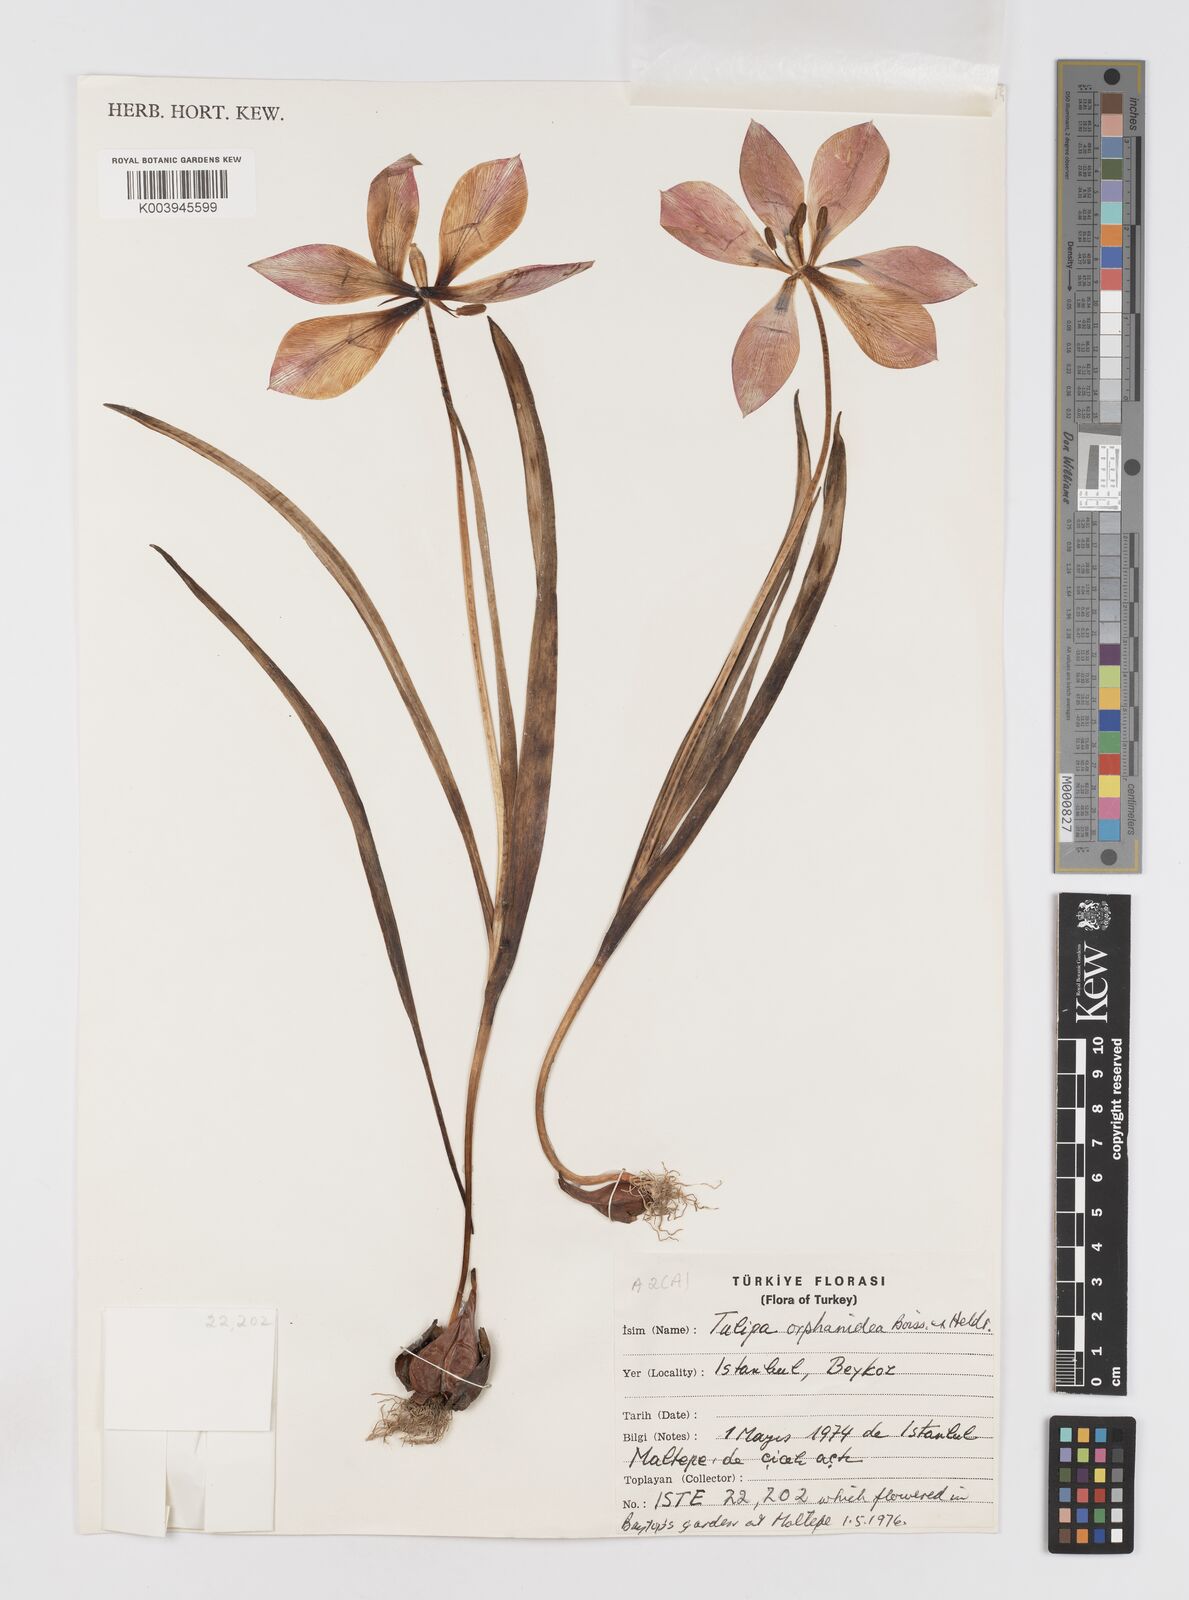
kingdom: Plantae
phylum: Tracheophyta
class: Liliopsida
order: Liliales
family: Liliaceae
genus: Tulipa
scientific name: Tulipa orphanidea
